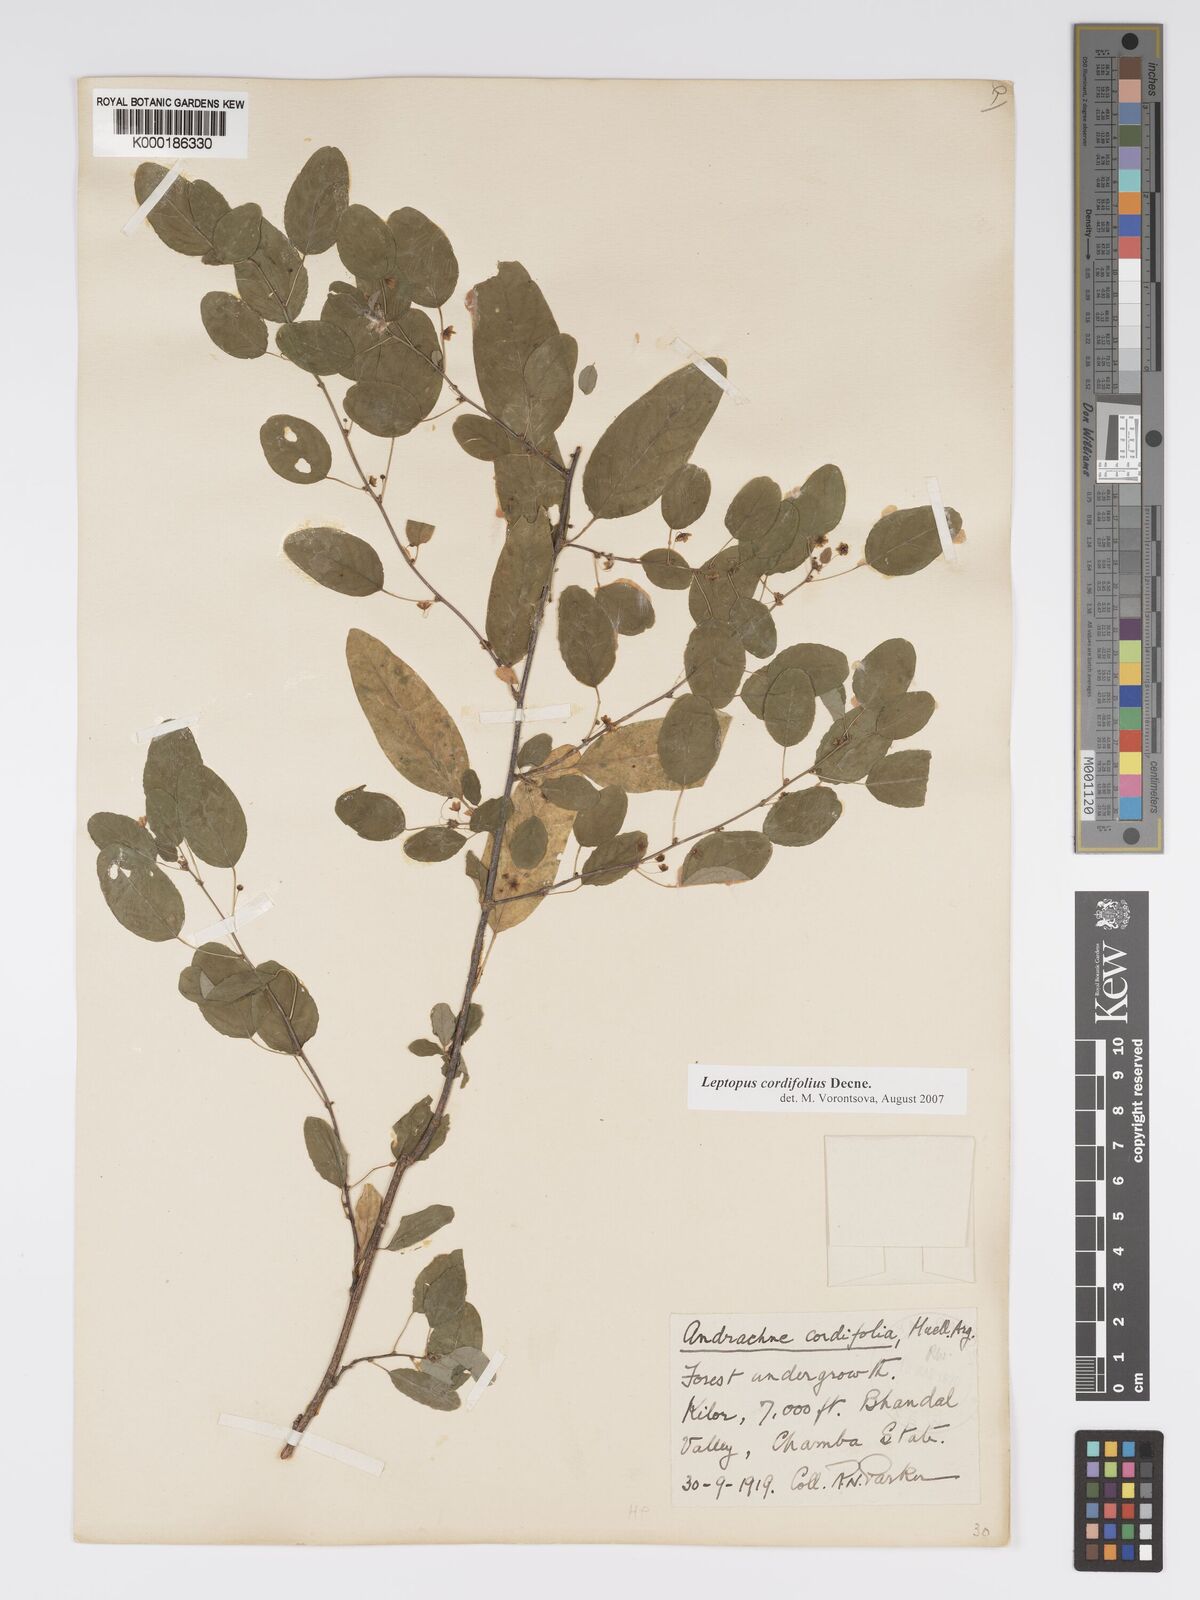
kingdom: Plantae
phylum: Tracheophyta
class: Magnoliopsida
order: Malpighiales
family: Phyllanthaceae
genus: Leptopus
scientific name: Leptopus cordifolius
